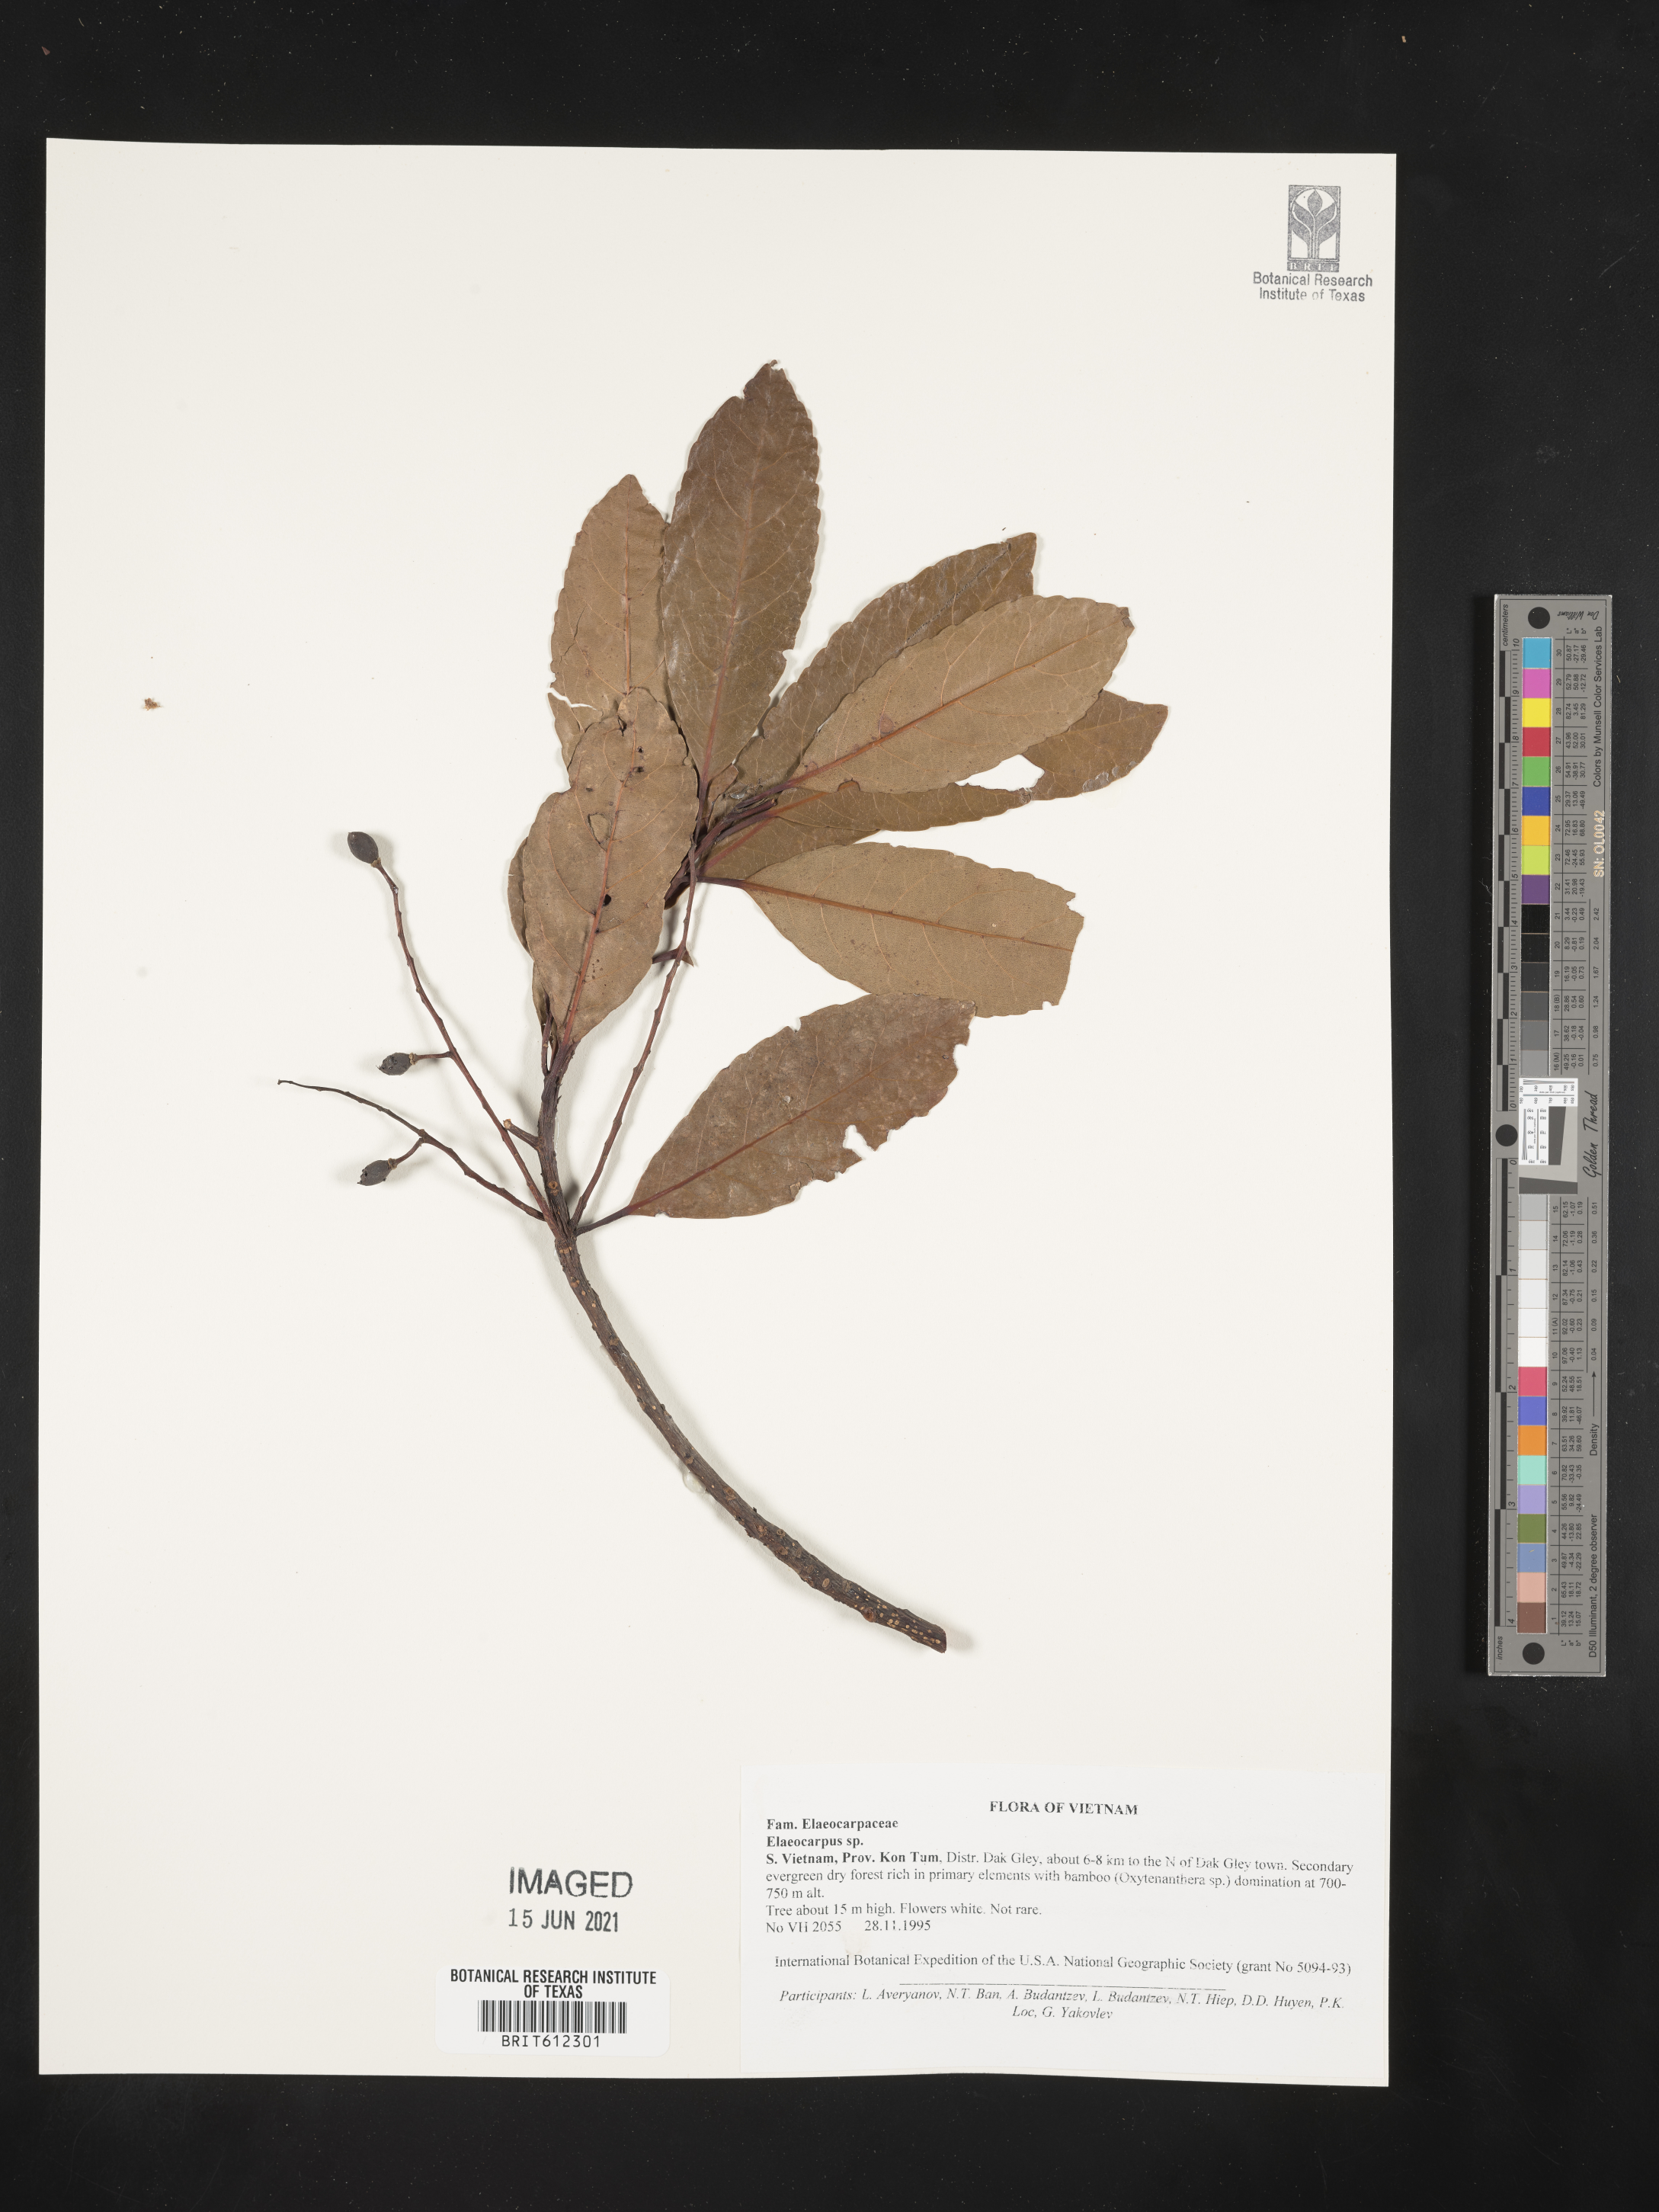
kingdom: Plantae
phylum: Tracheophyta
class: Magnoliopsida
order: Oxalidales
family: Elaeocarpaceae
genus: Elaeocarpus
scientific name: Elaeocarpus
